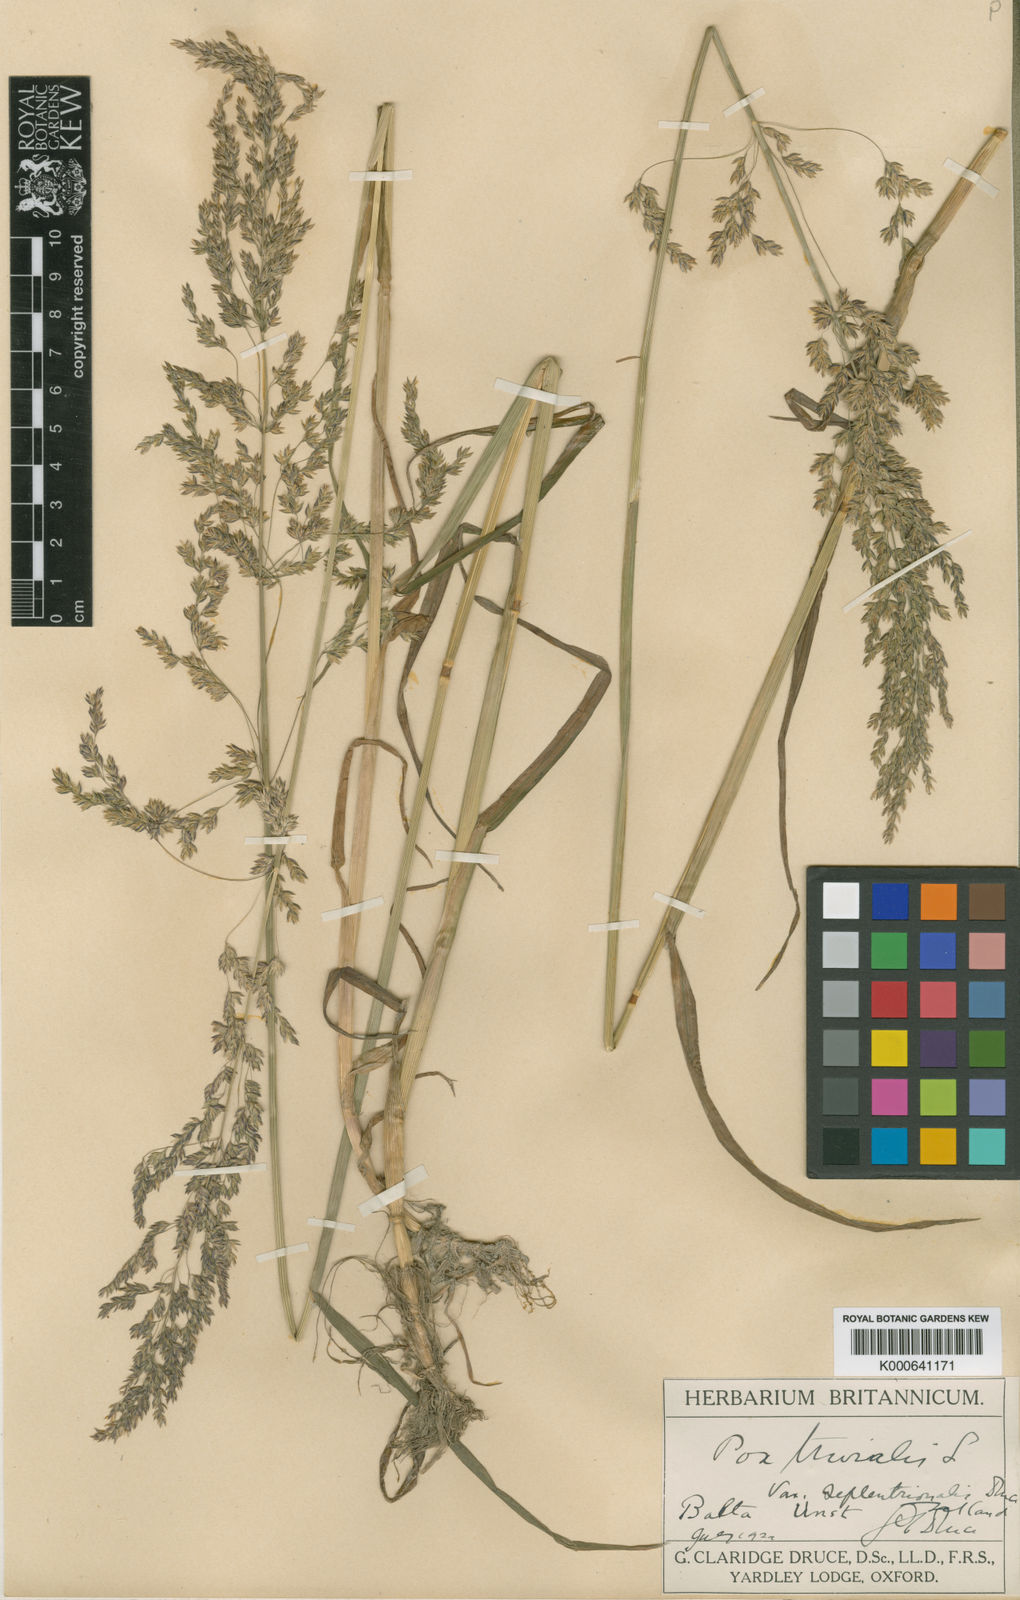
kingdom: Plantae
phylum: Tracheophyta
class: Liliopsida
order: Poales
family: Poaceae
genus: Poa
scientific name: Poa trivialis
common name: Rough bluegrass
